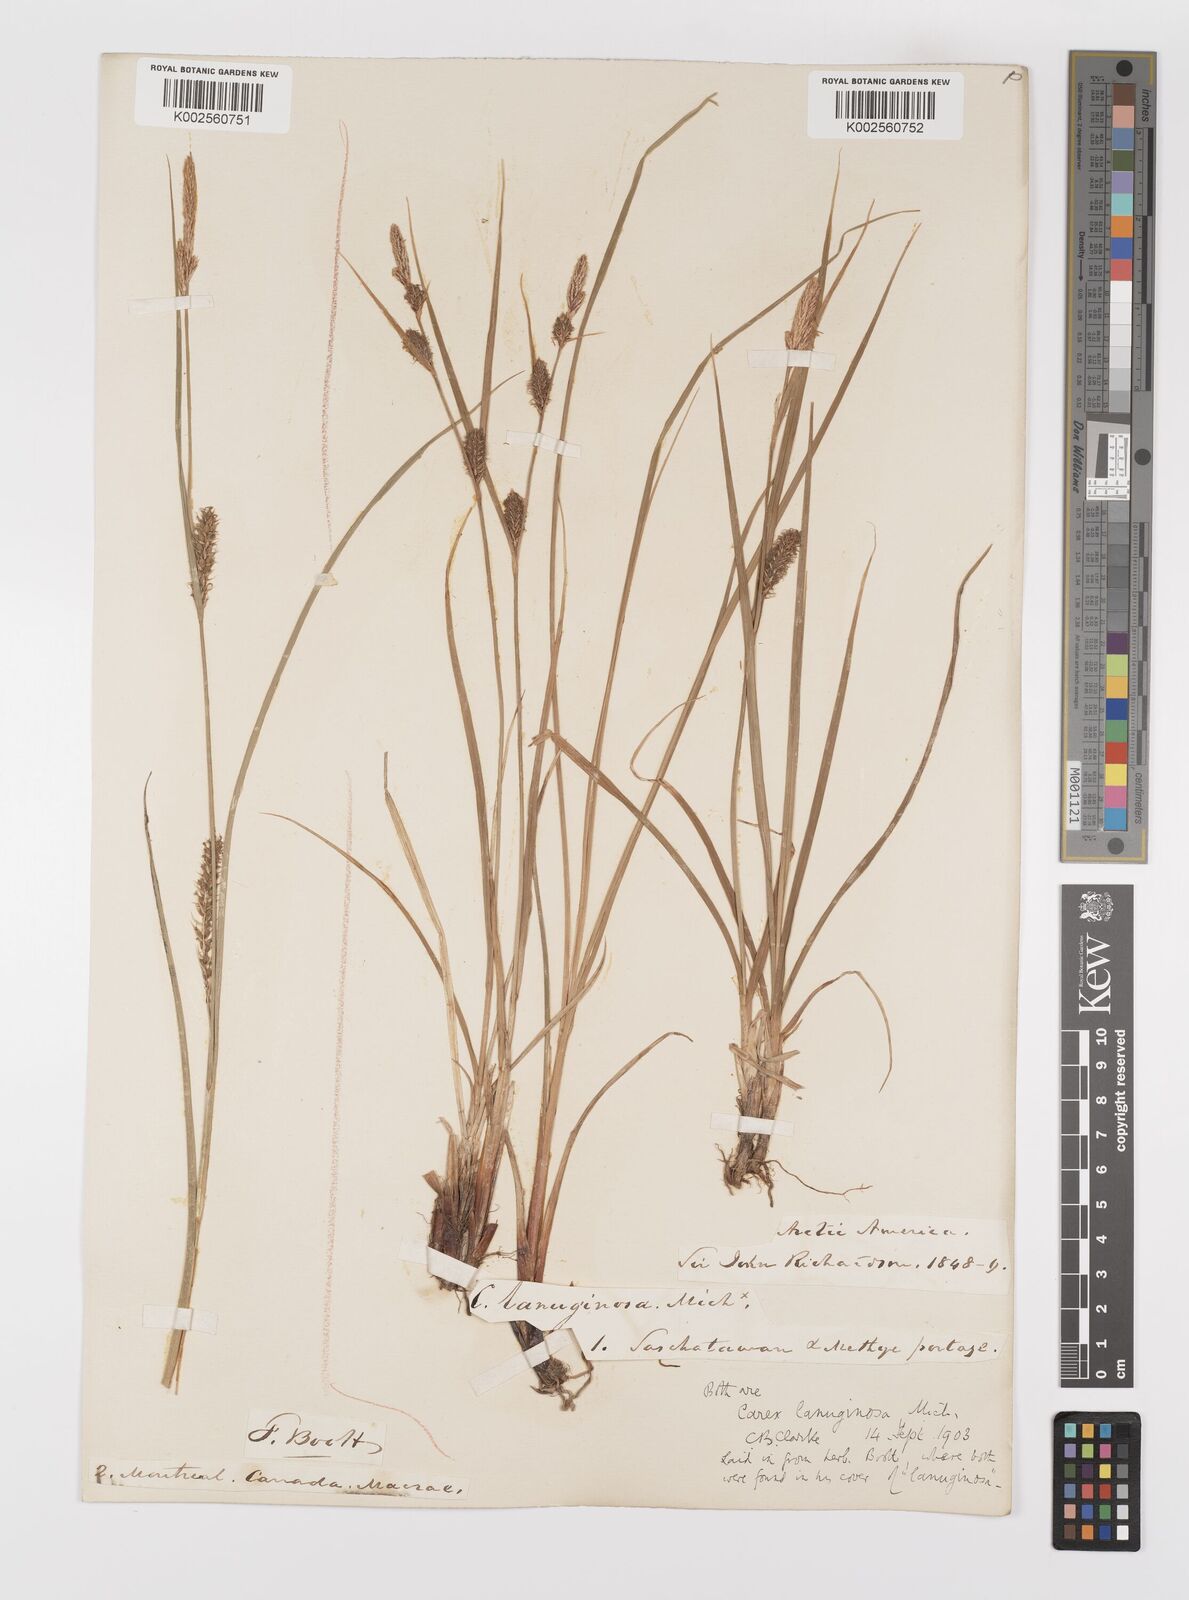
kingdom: Plantae
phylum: Tracheophyta
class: Liliopsida
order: Poales
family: Cyperaceae
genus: Carex
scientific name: Carex lasiocarpa
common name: Slender sedge
